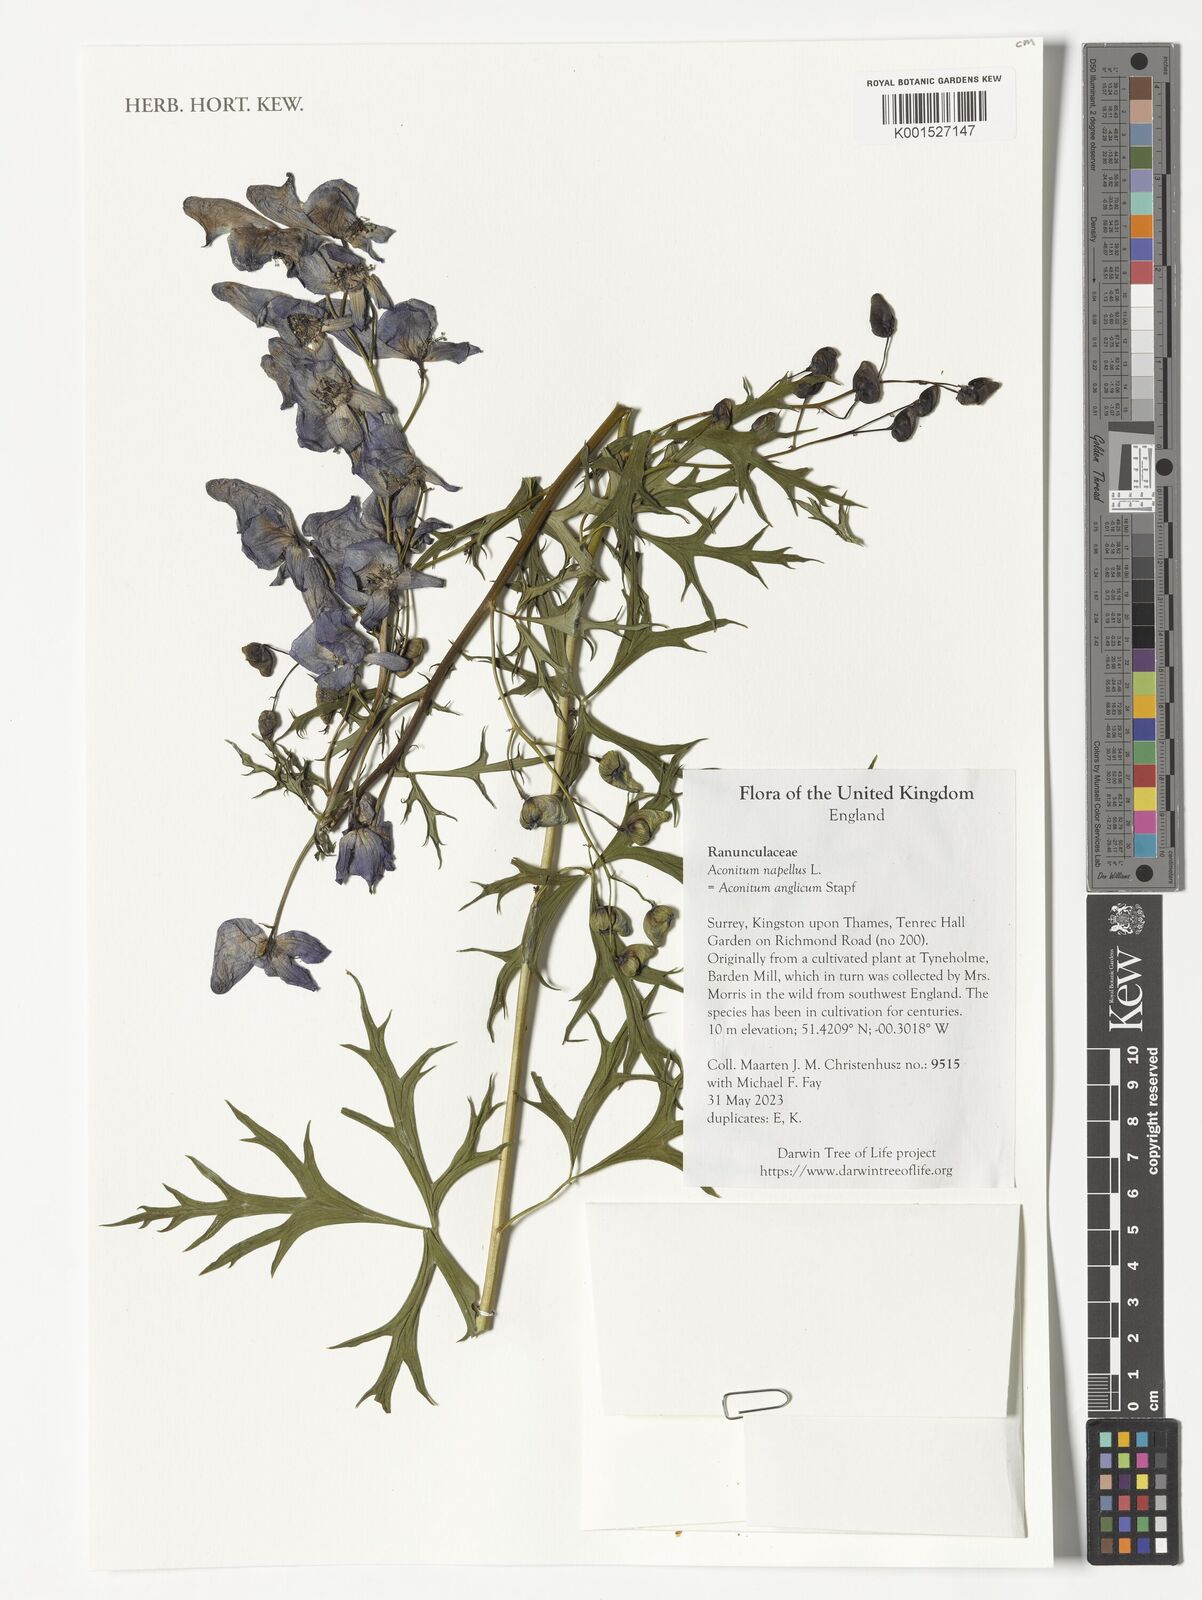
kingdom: Plantae
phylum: Tracheophyta
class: Magnoliopsida
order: Ranunculales
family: Ranunculaceae
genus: Aconitum
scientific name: Aconitum napellus
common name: Garden monkshood
